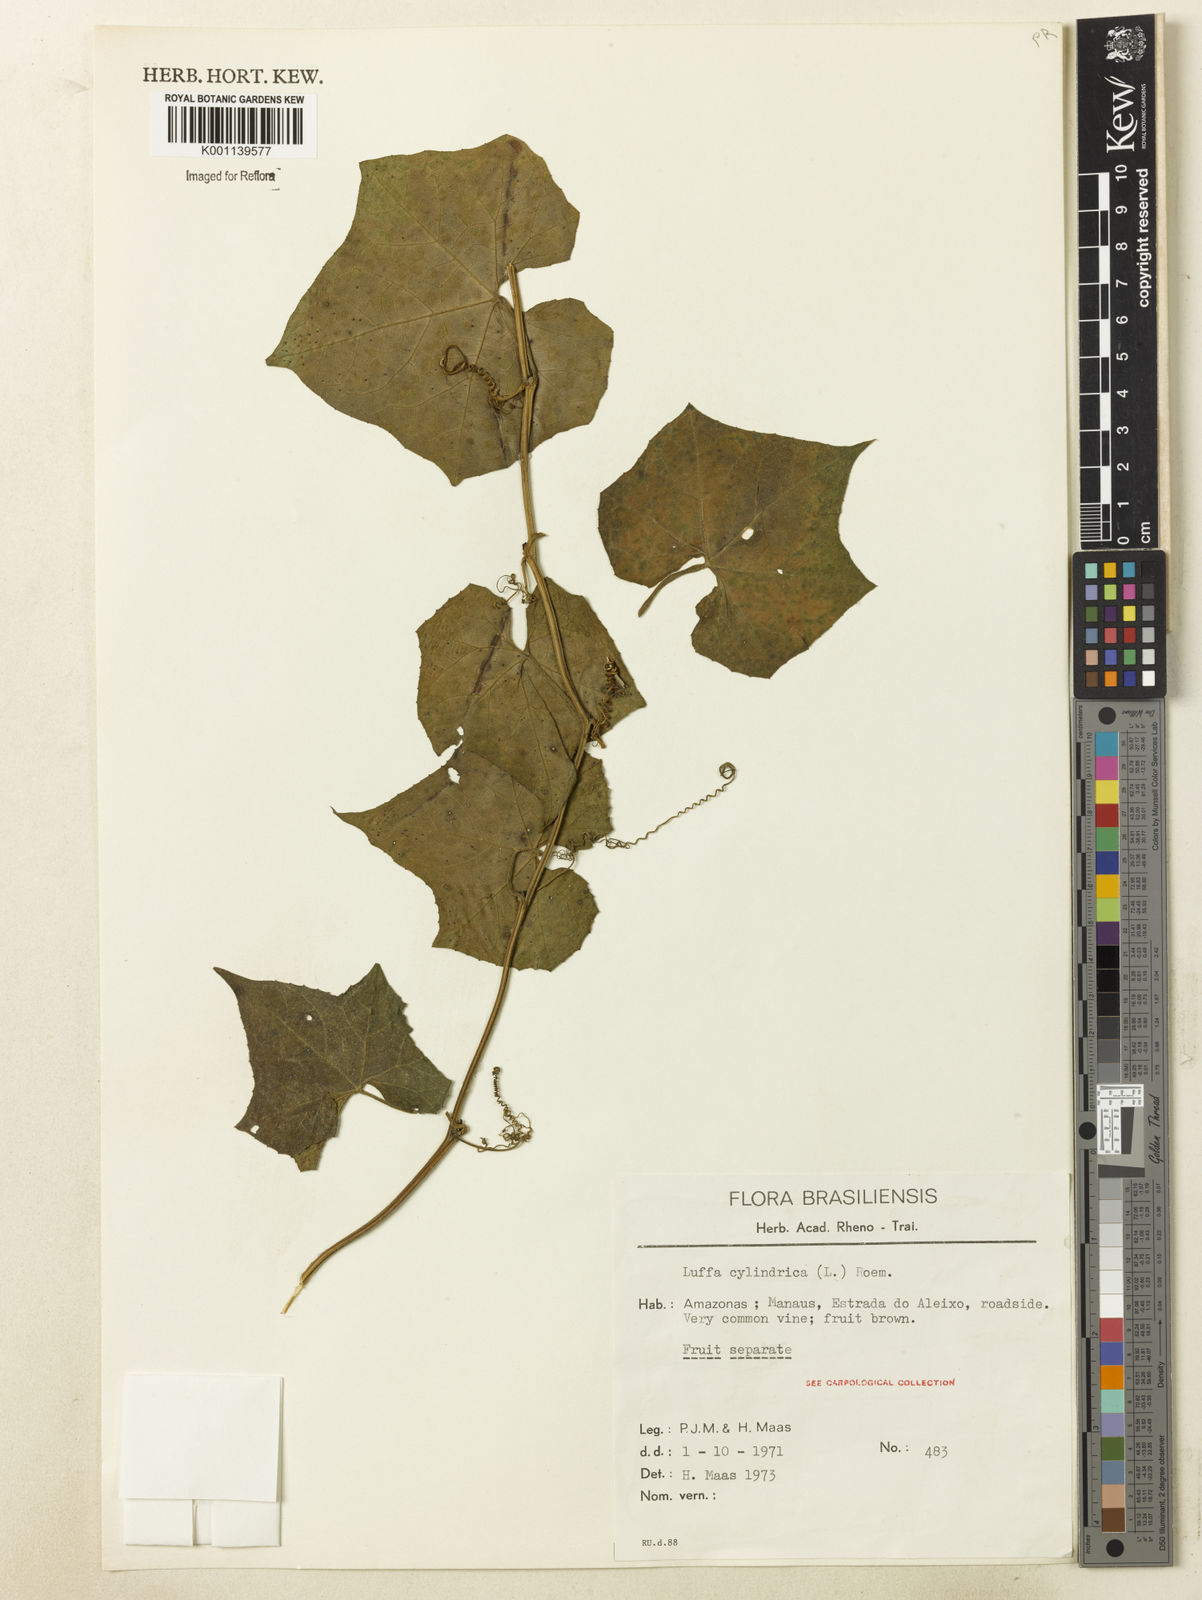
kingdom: Plantae
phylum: Tracheophyta
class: Magnoliopsida
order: Cucurbitales
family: Cucurbitaceae
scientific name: Cucurbitaceae
